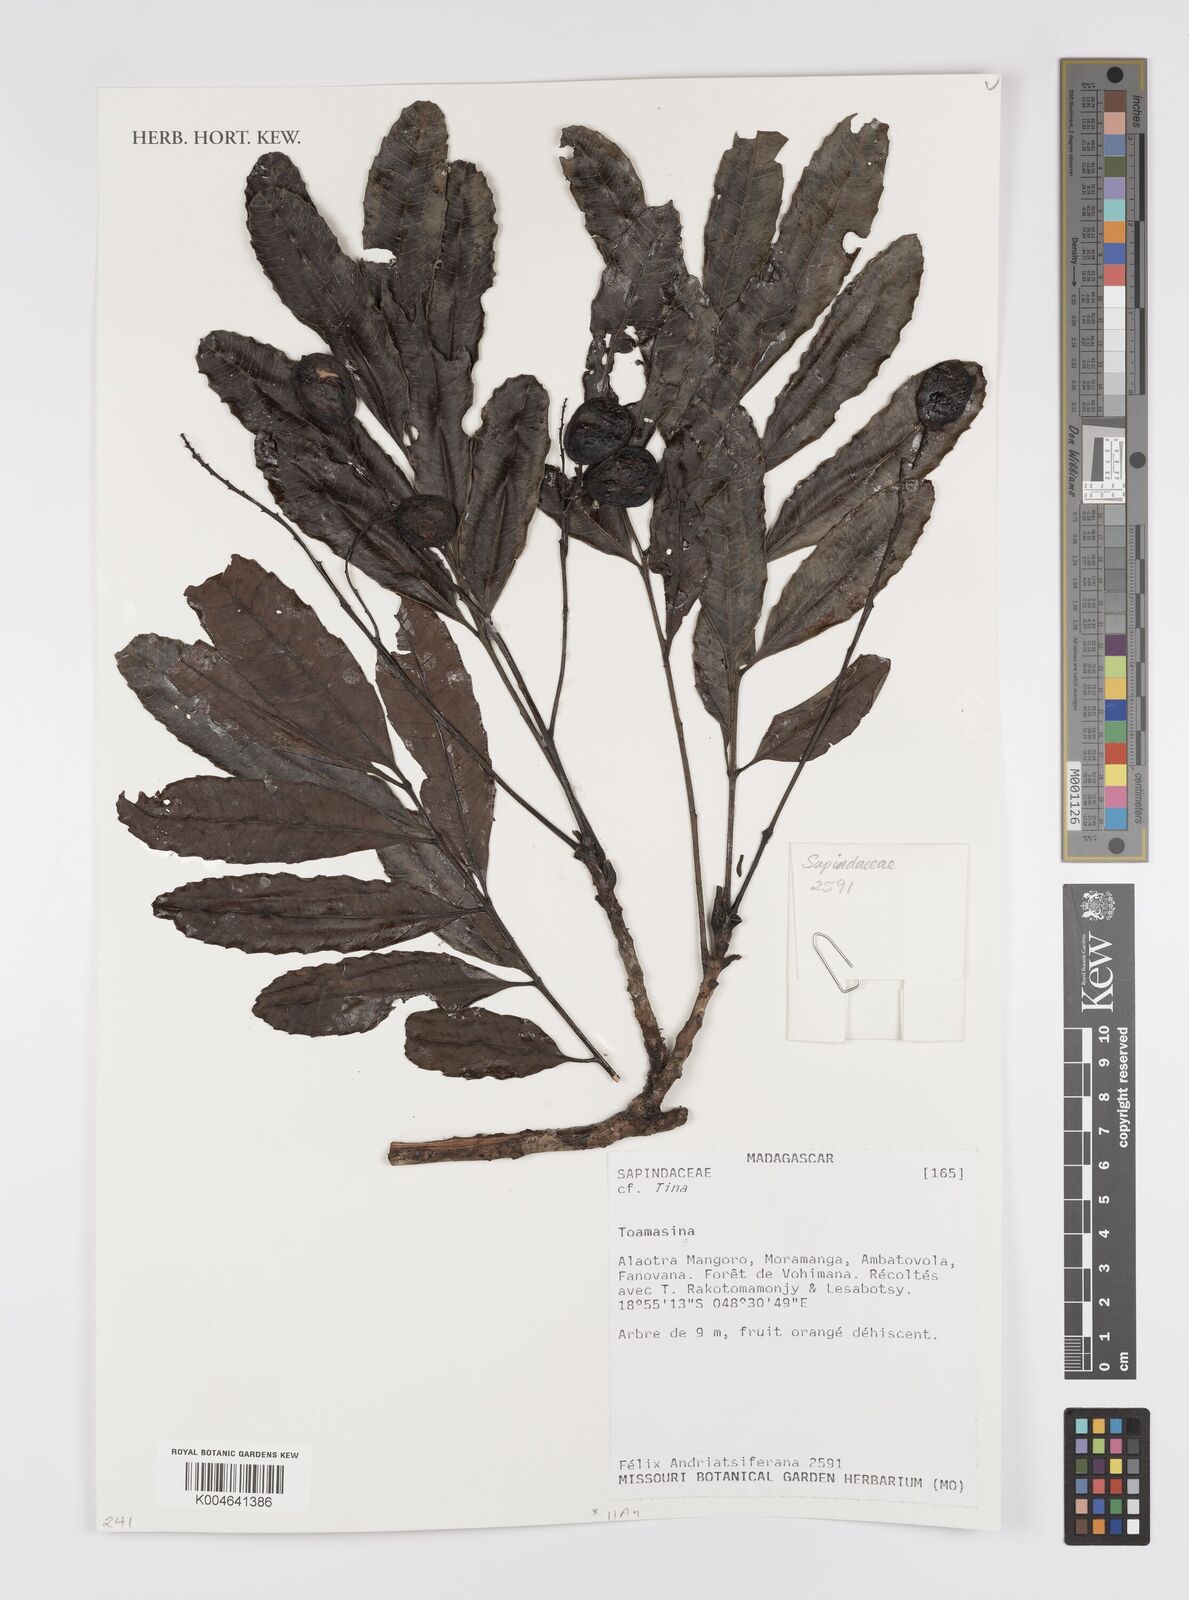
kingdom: Plantae
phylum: Tracheophyta
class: Magnoliopsida
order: Sapindales
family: Sapindaceae
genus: Tina
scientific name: Tina
